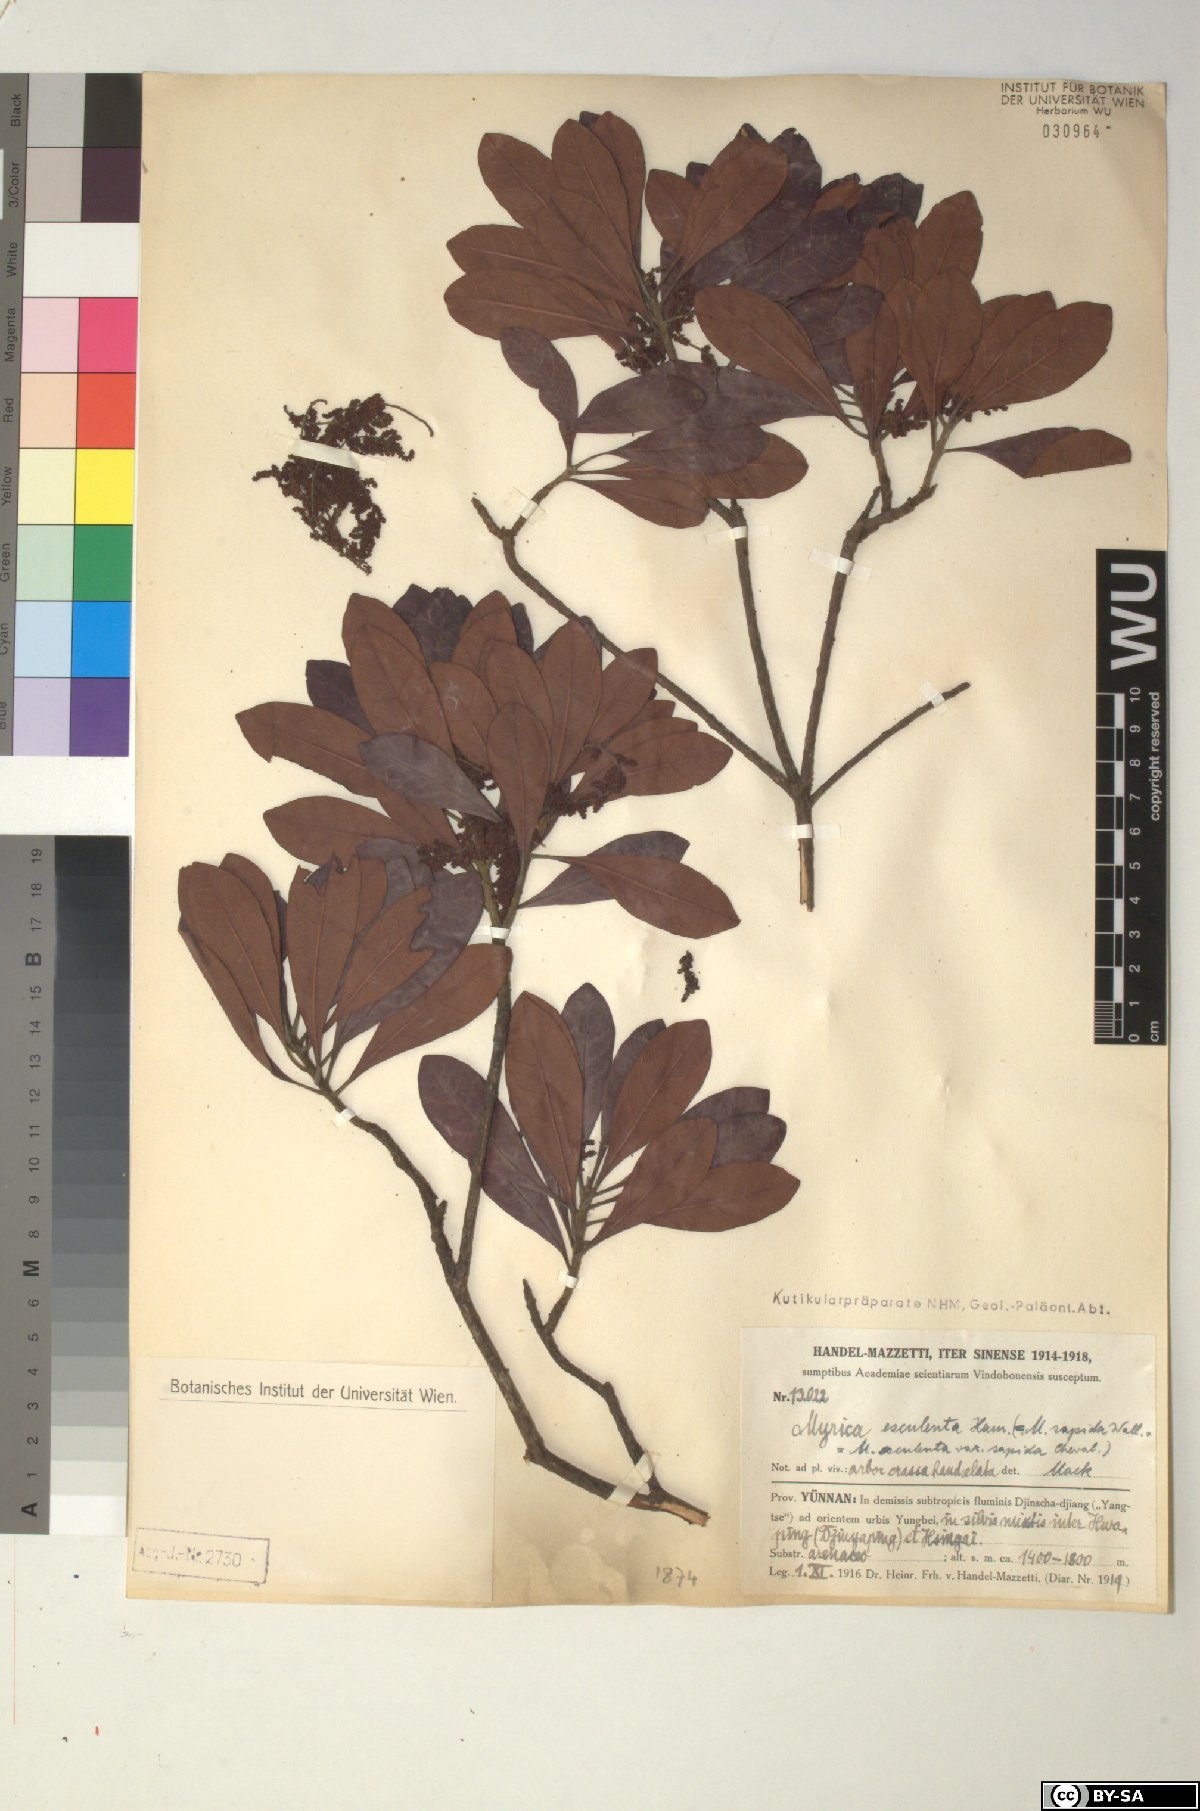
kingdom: Plantae
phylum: Tracheophyta
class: Magnoliopsida
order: Fagales
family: Myricaceae
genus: Morella
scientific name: Morella esculenta
